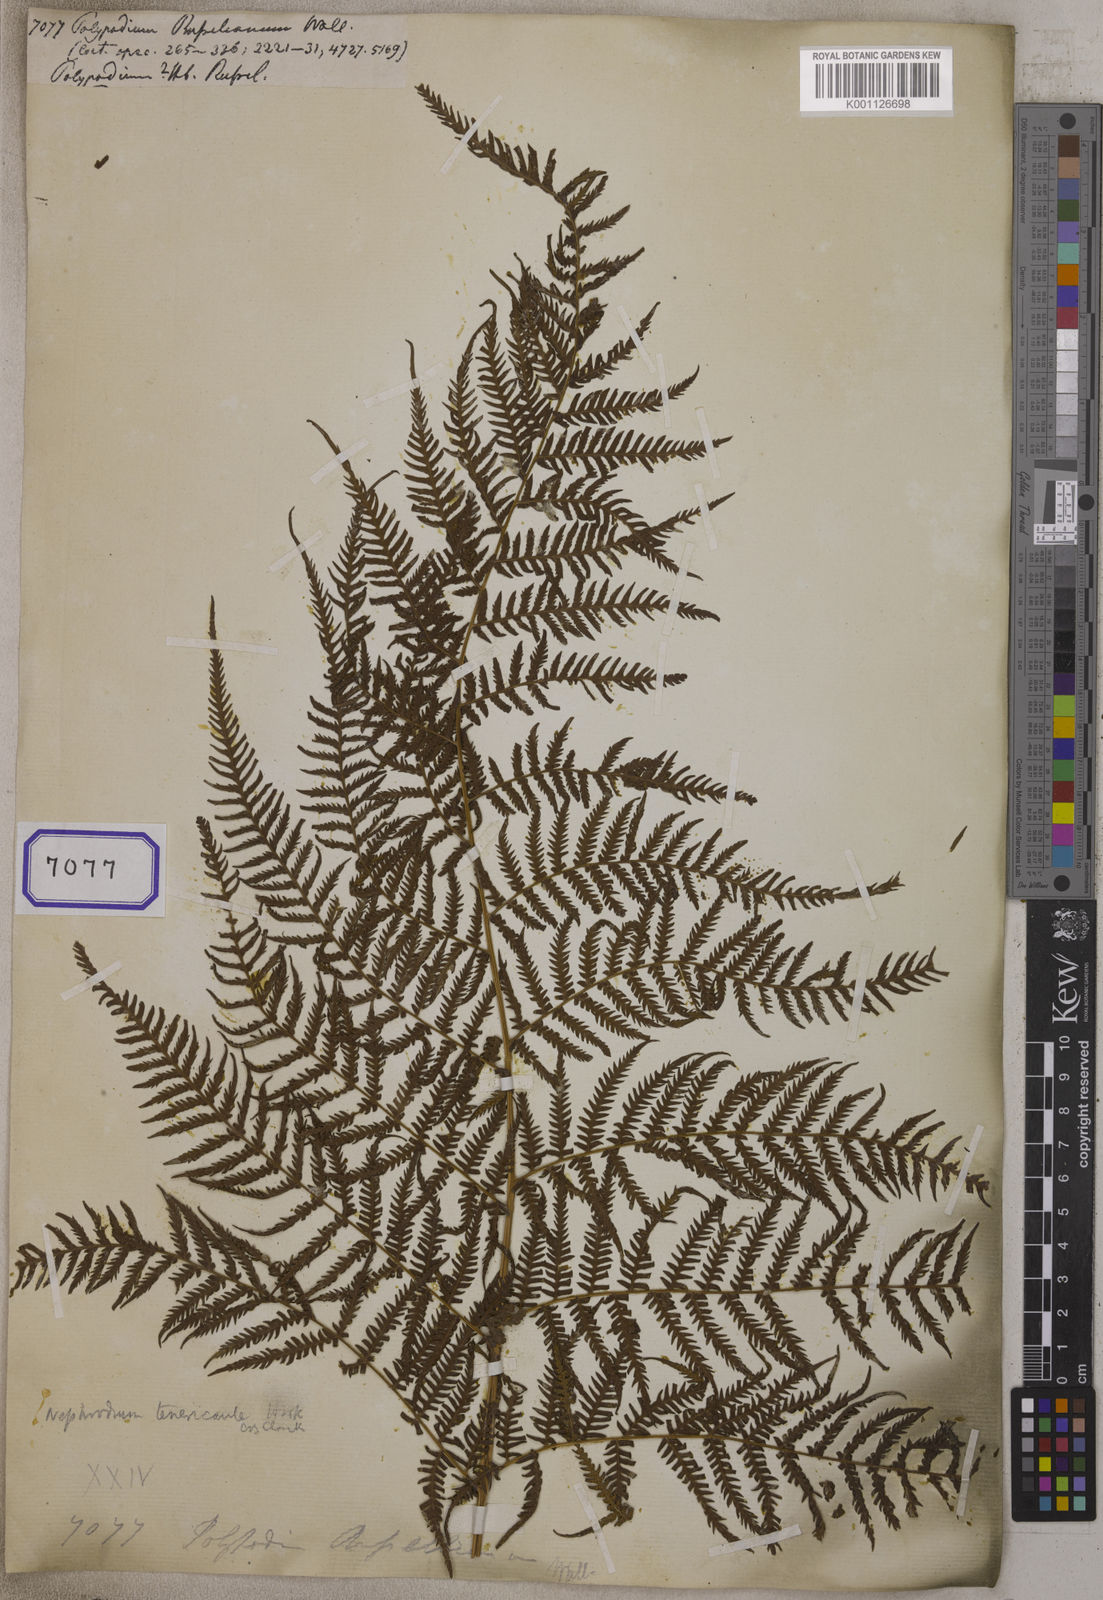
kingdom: Plantae
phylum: Tracheophyta
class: Polypodiopsida
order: Polypodiales
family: Thelypteridaceae
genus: Macrothelypteris
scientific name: Macrothelypteris torresiana
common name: Swordfern
